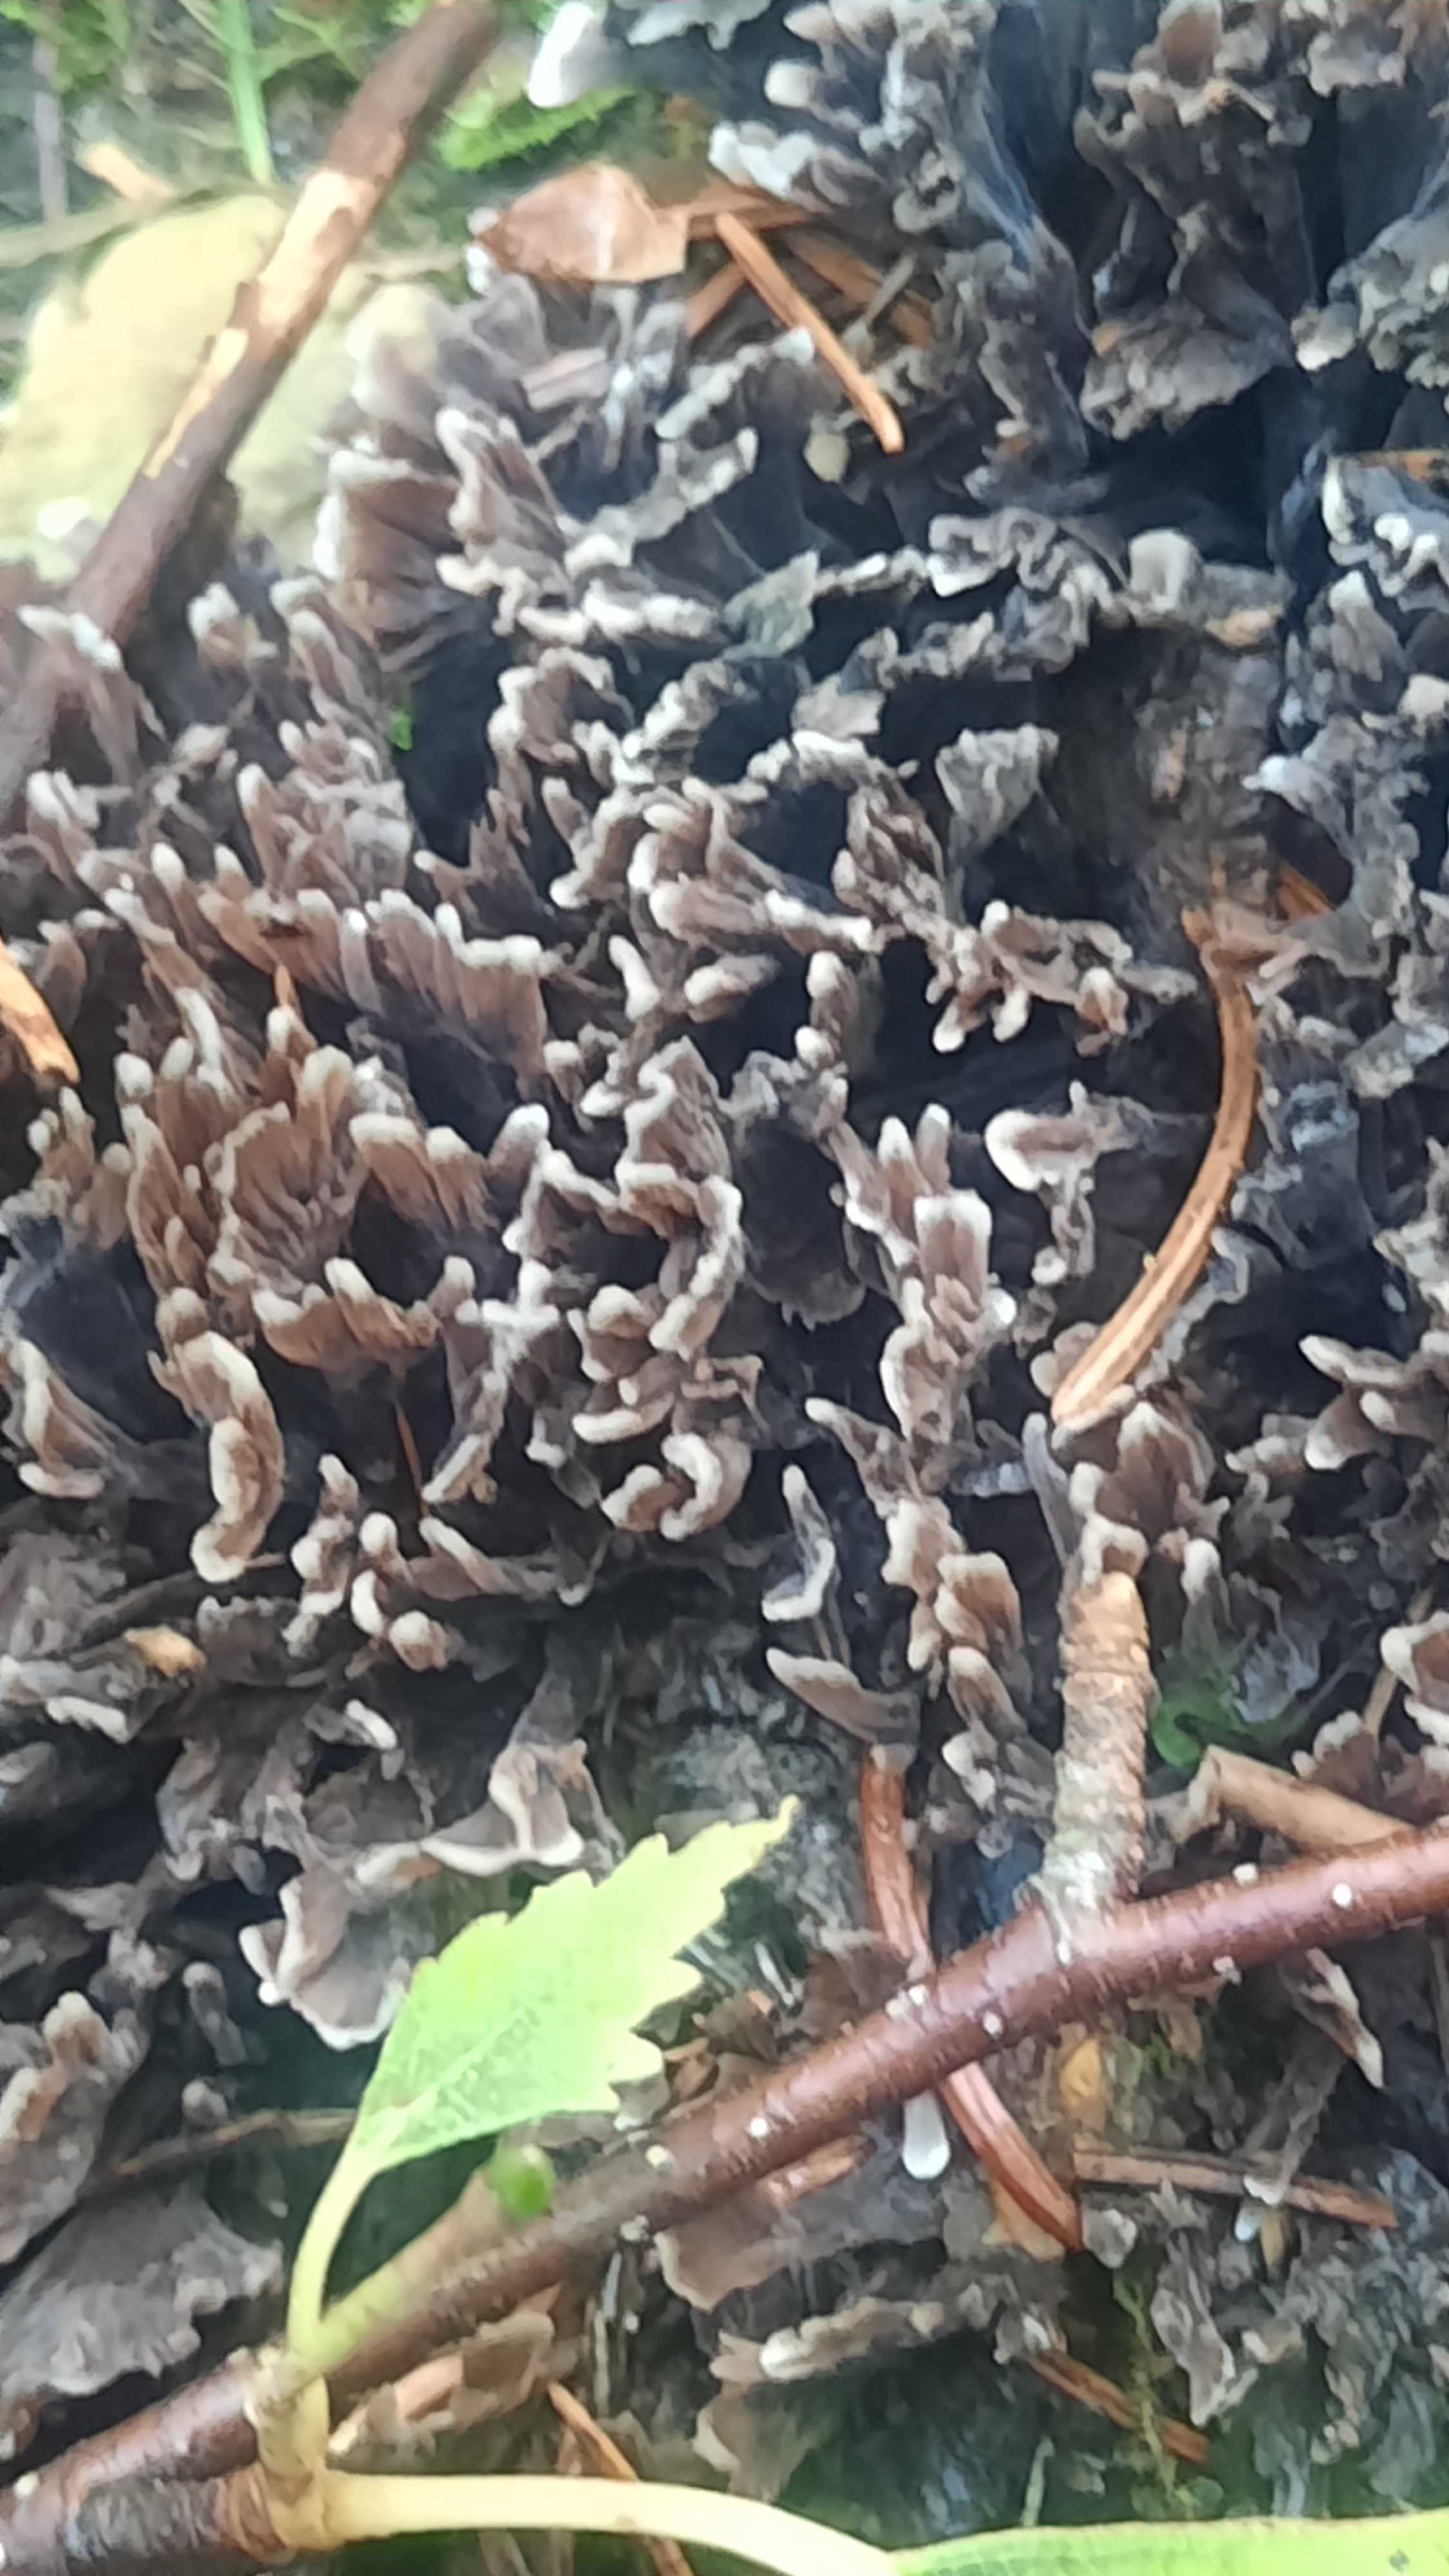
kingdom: Fungi
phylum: Basidiomycota
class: Agaricomycetes
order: Thelephorales
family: Thelephoraceae
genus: Thelephora
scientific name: Thelephora
